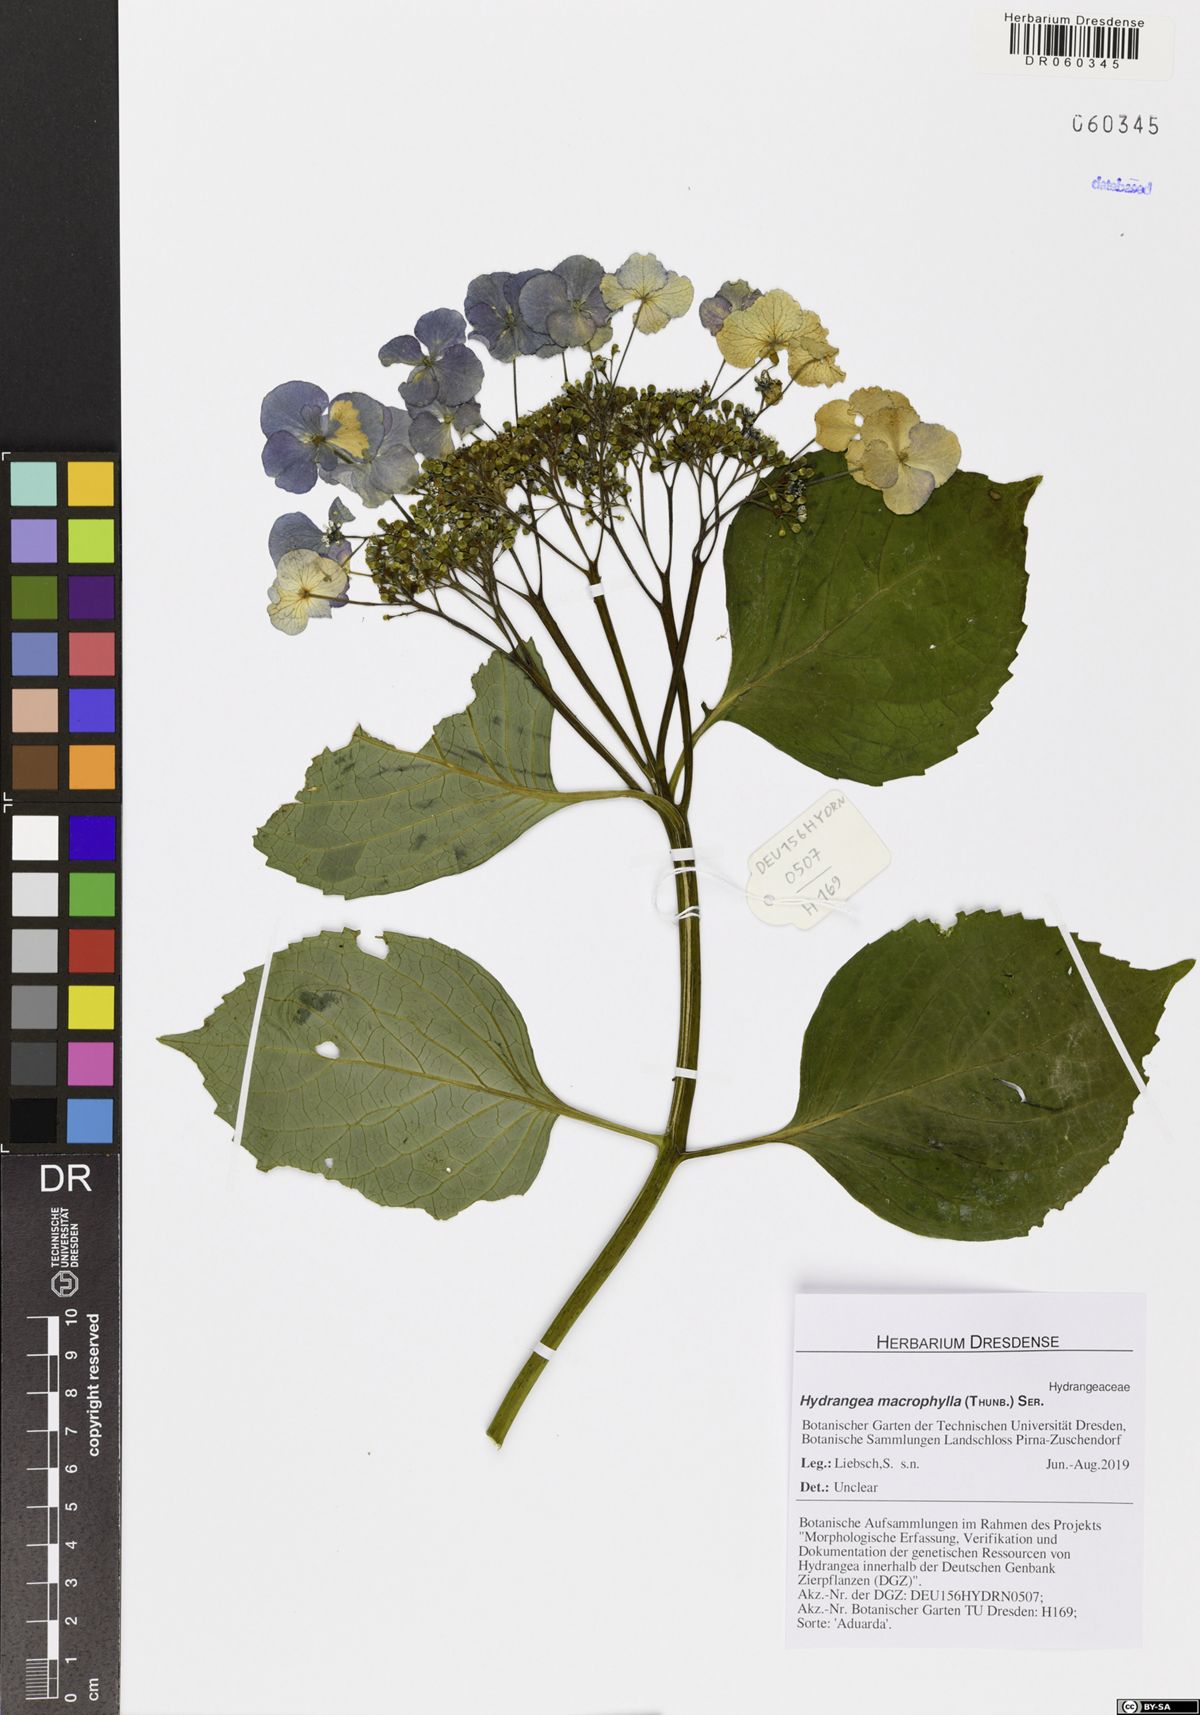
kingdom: Plantae
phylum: Tracheophyta
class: Magnoliopsida
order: Cornales
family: Hydrangeaceae
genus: Hydrangea
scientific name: Hydrangea macrophylla
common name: Hydrangea
